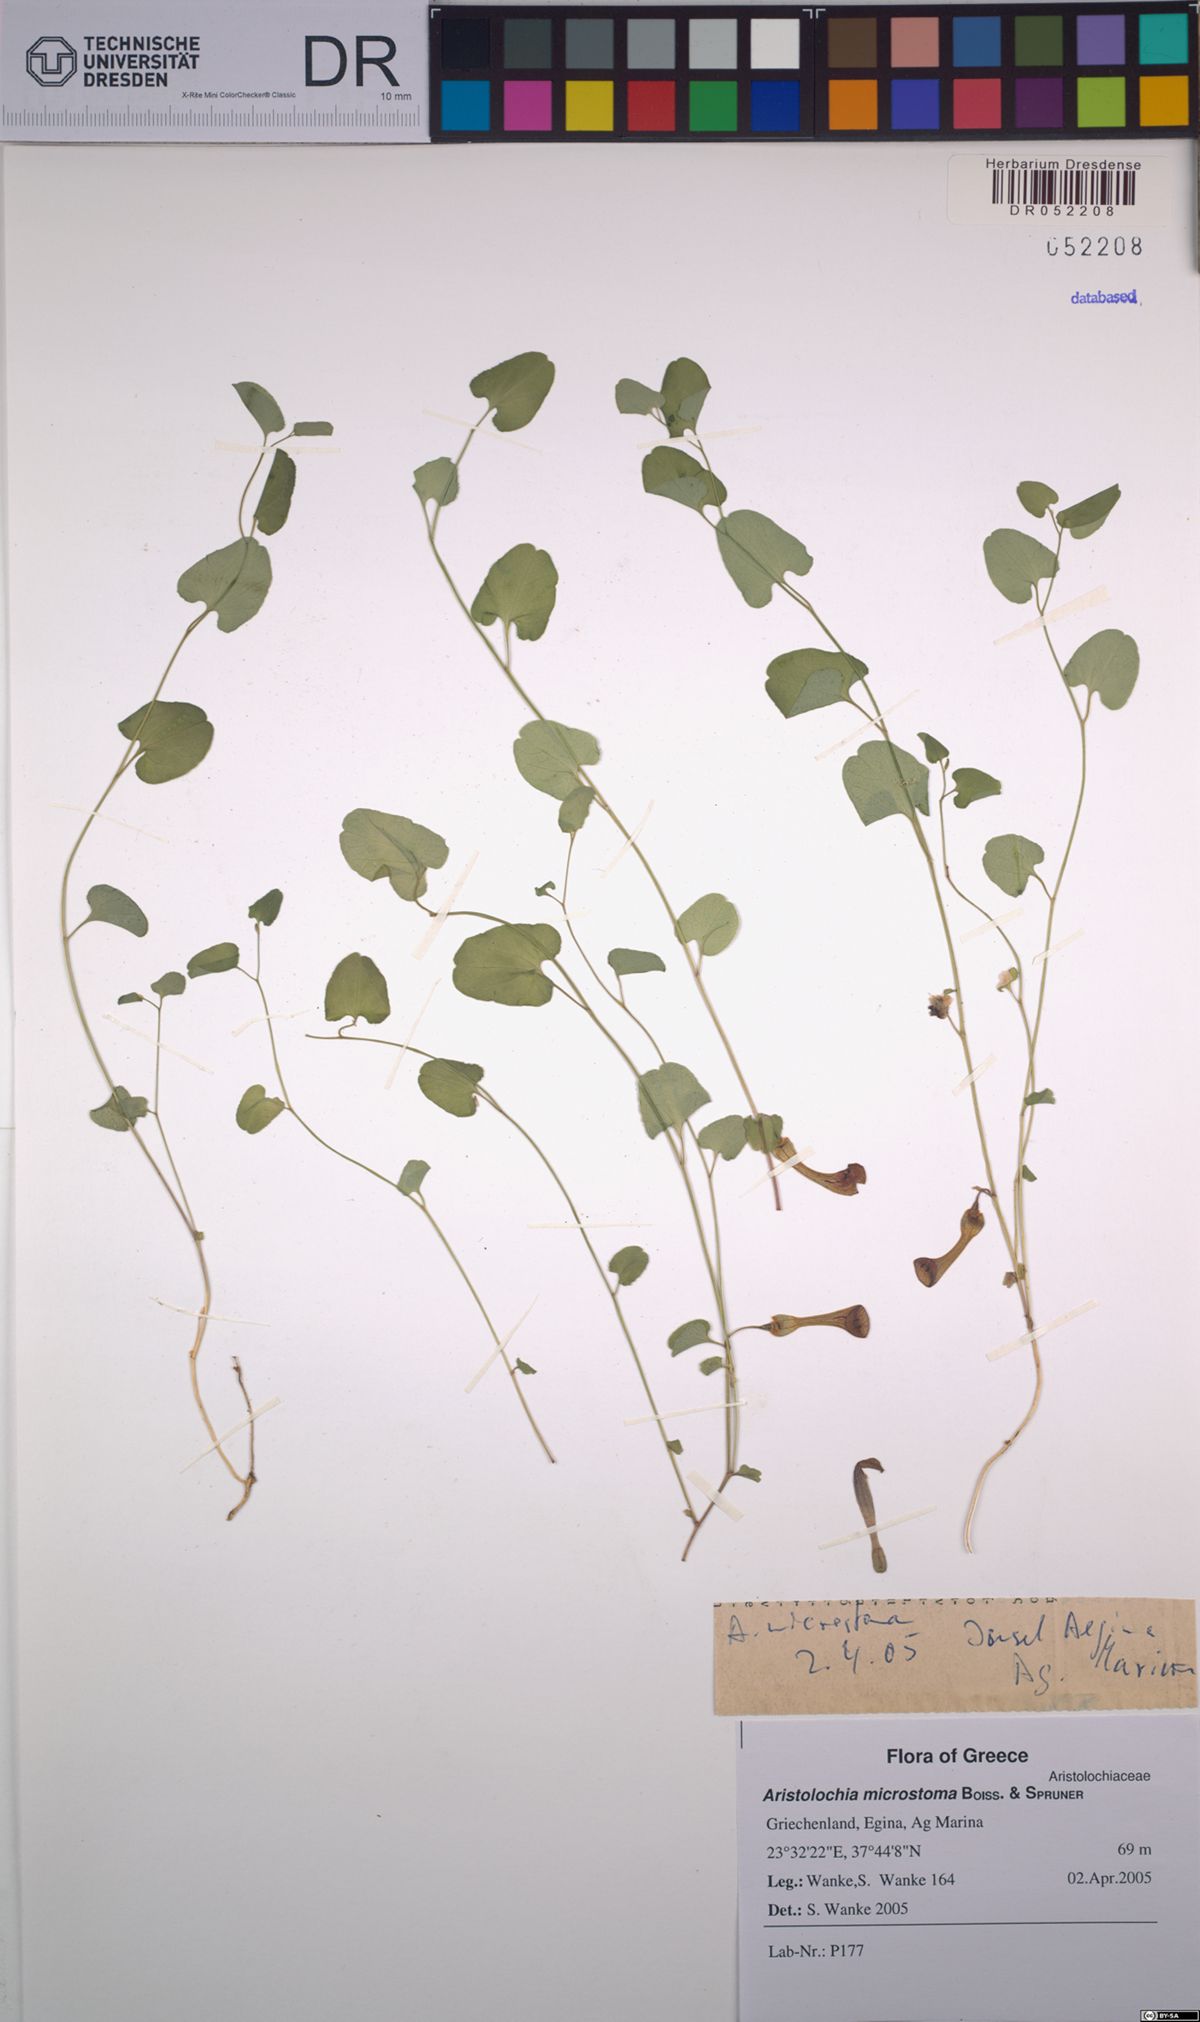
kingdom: Plantae
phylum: Tracheophyta
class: Magnoliopsida
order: Piperales
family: Aristolochiaceae
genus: Aristolochia
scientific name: Aristolochia microstoma
